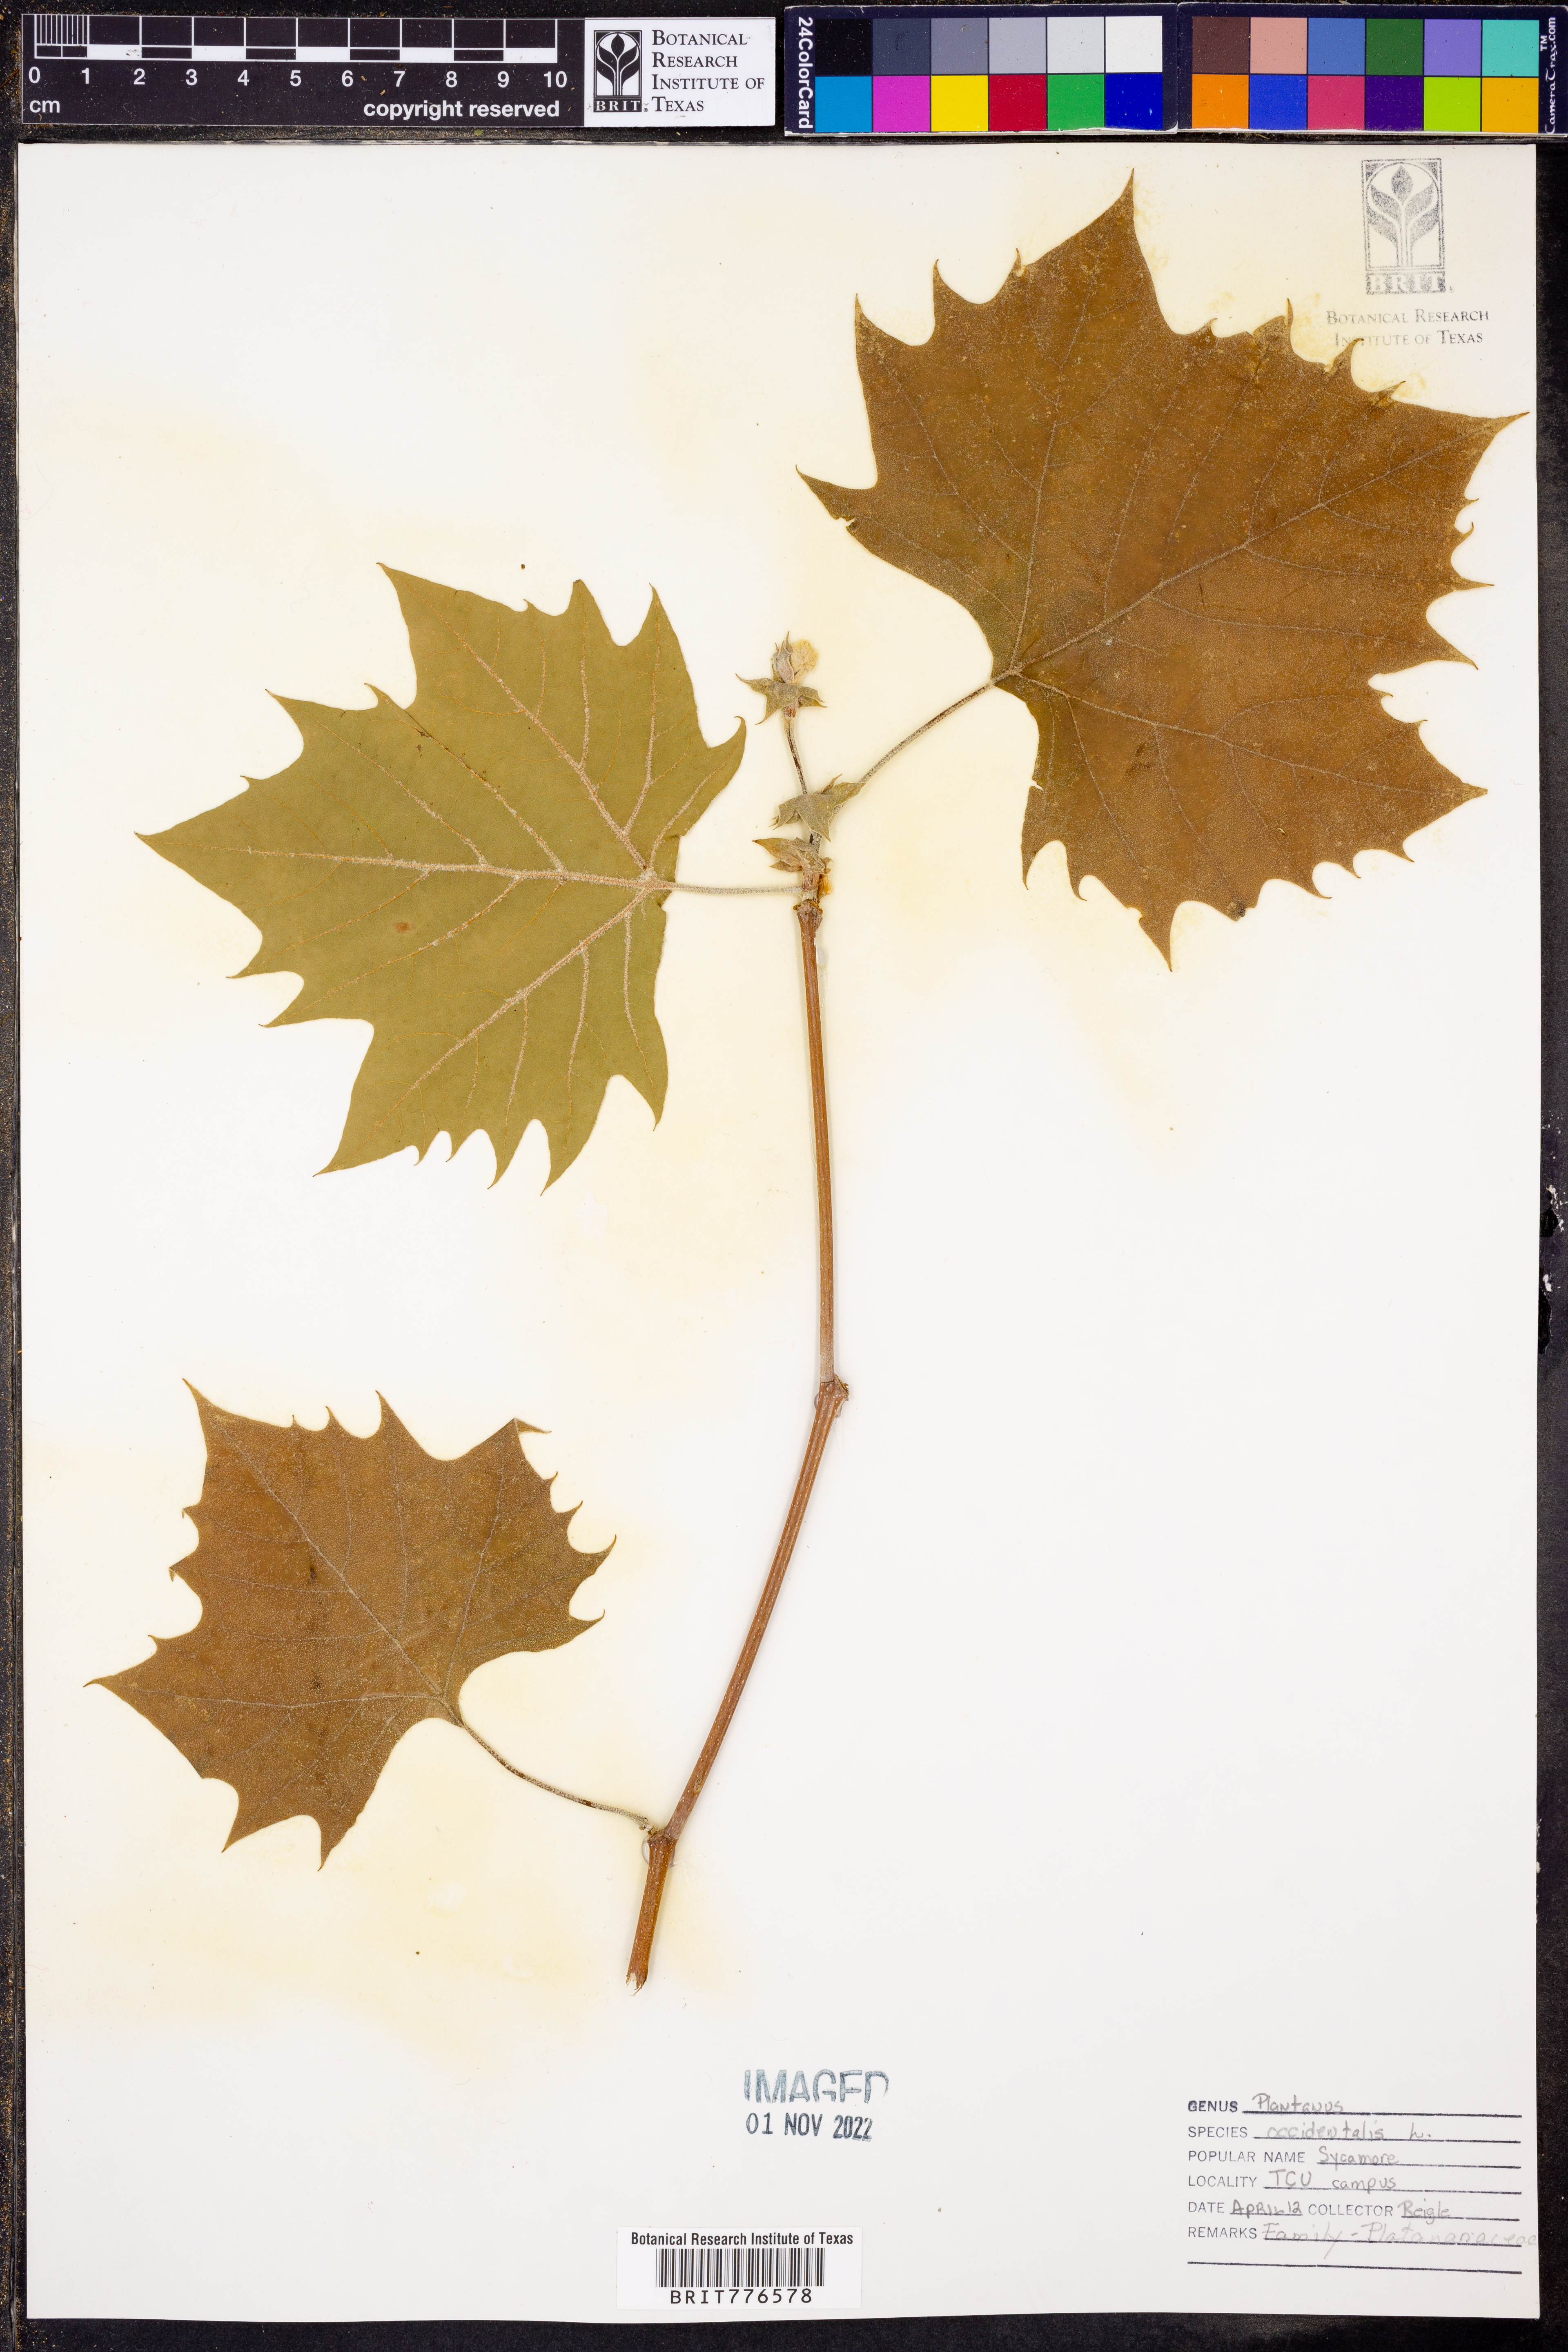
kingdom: Plantae
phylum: Tracheophyta
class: Magnoliopsida
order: Proteales
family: Platanaceae
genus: Platanus
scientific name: Platanus occidentalis
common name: American sycamore
